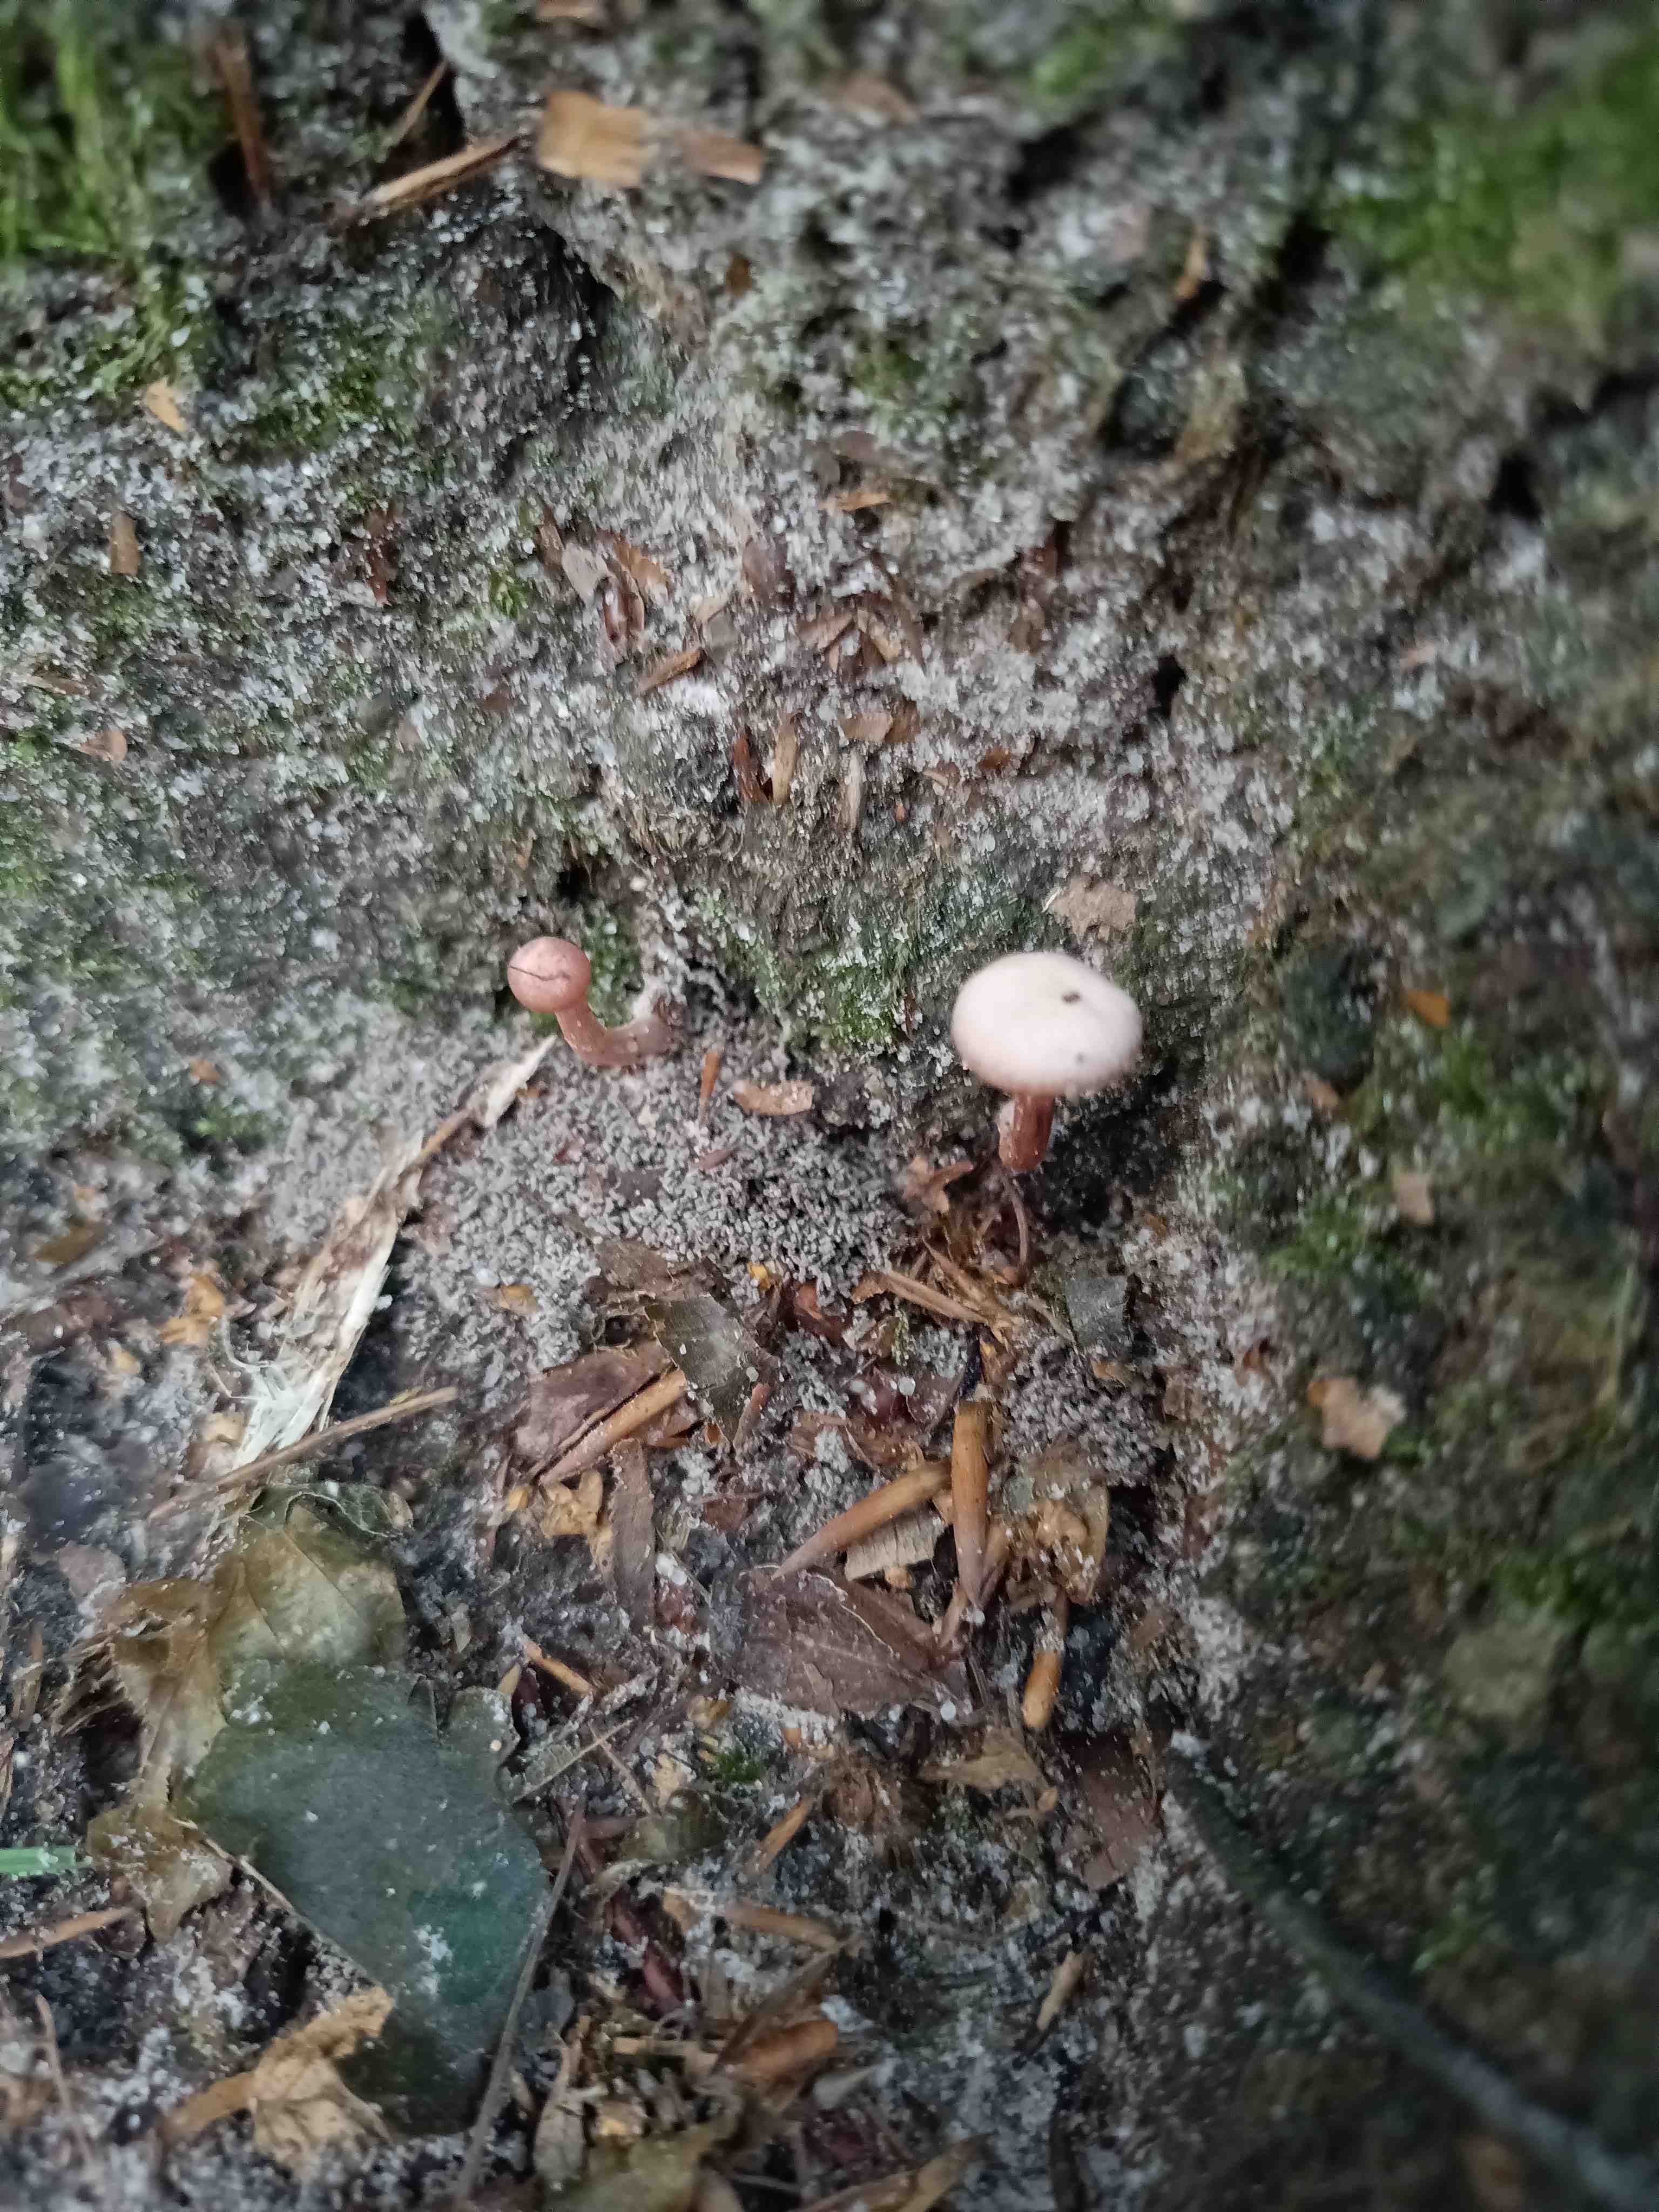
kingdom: Fungi
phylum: Basidiomycota
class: Agaricomycetes
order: Agaricales
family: Hydnangiaceae
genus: Laccaria
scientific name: Laccaria
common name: ametysthat
